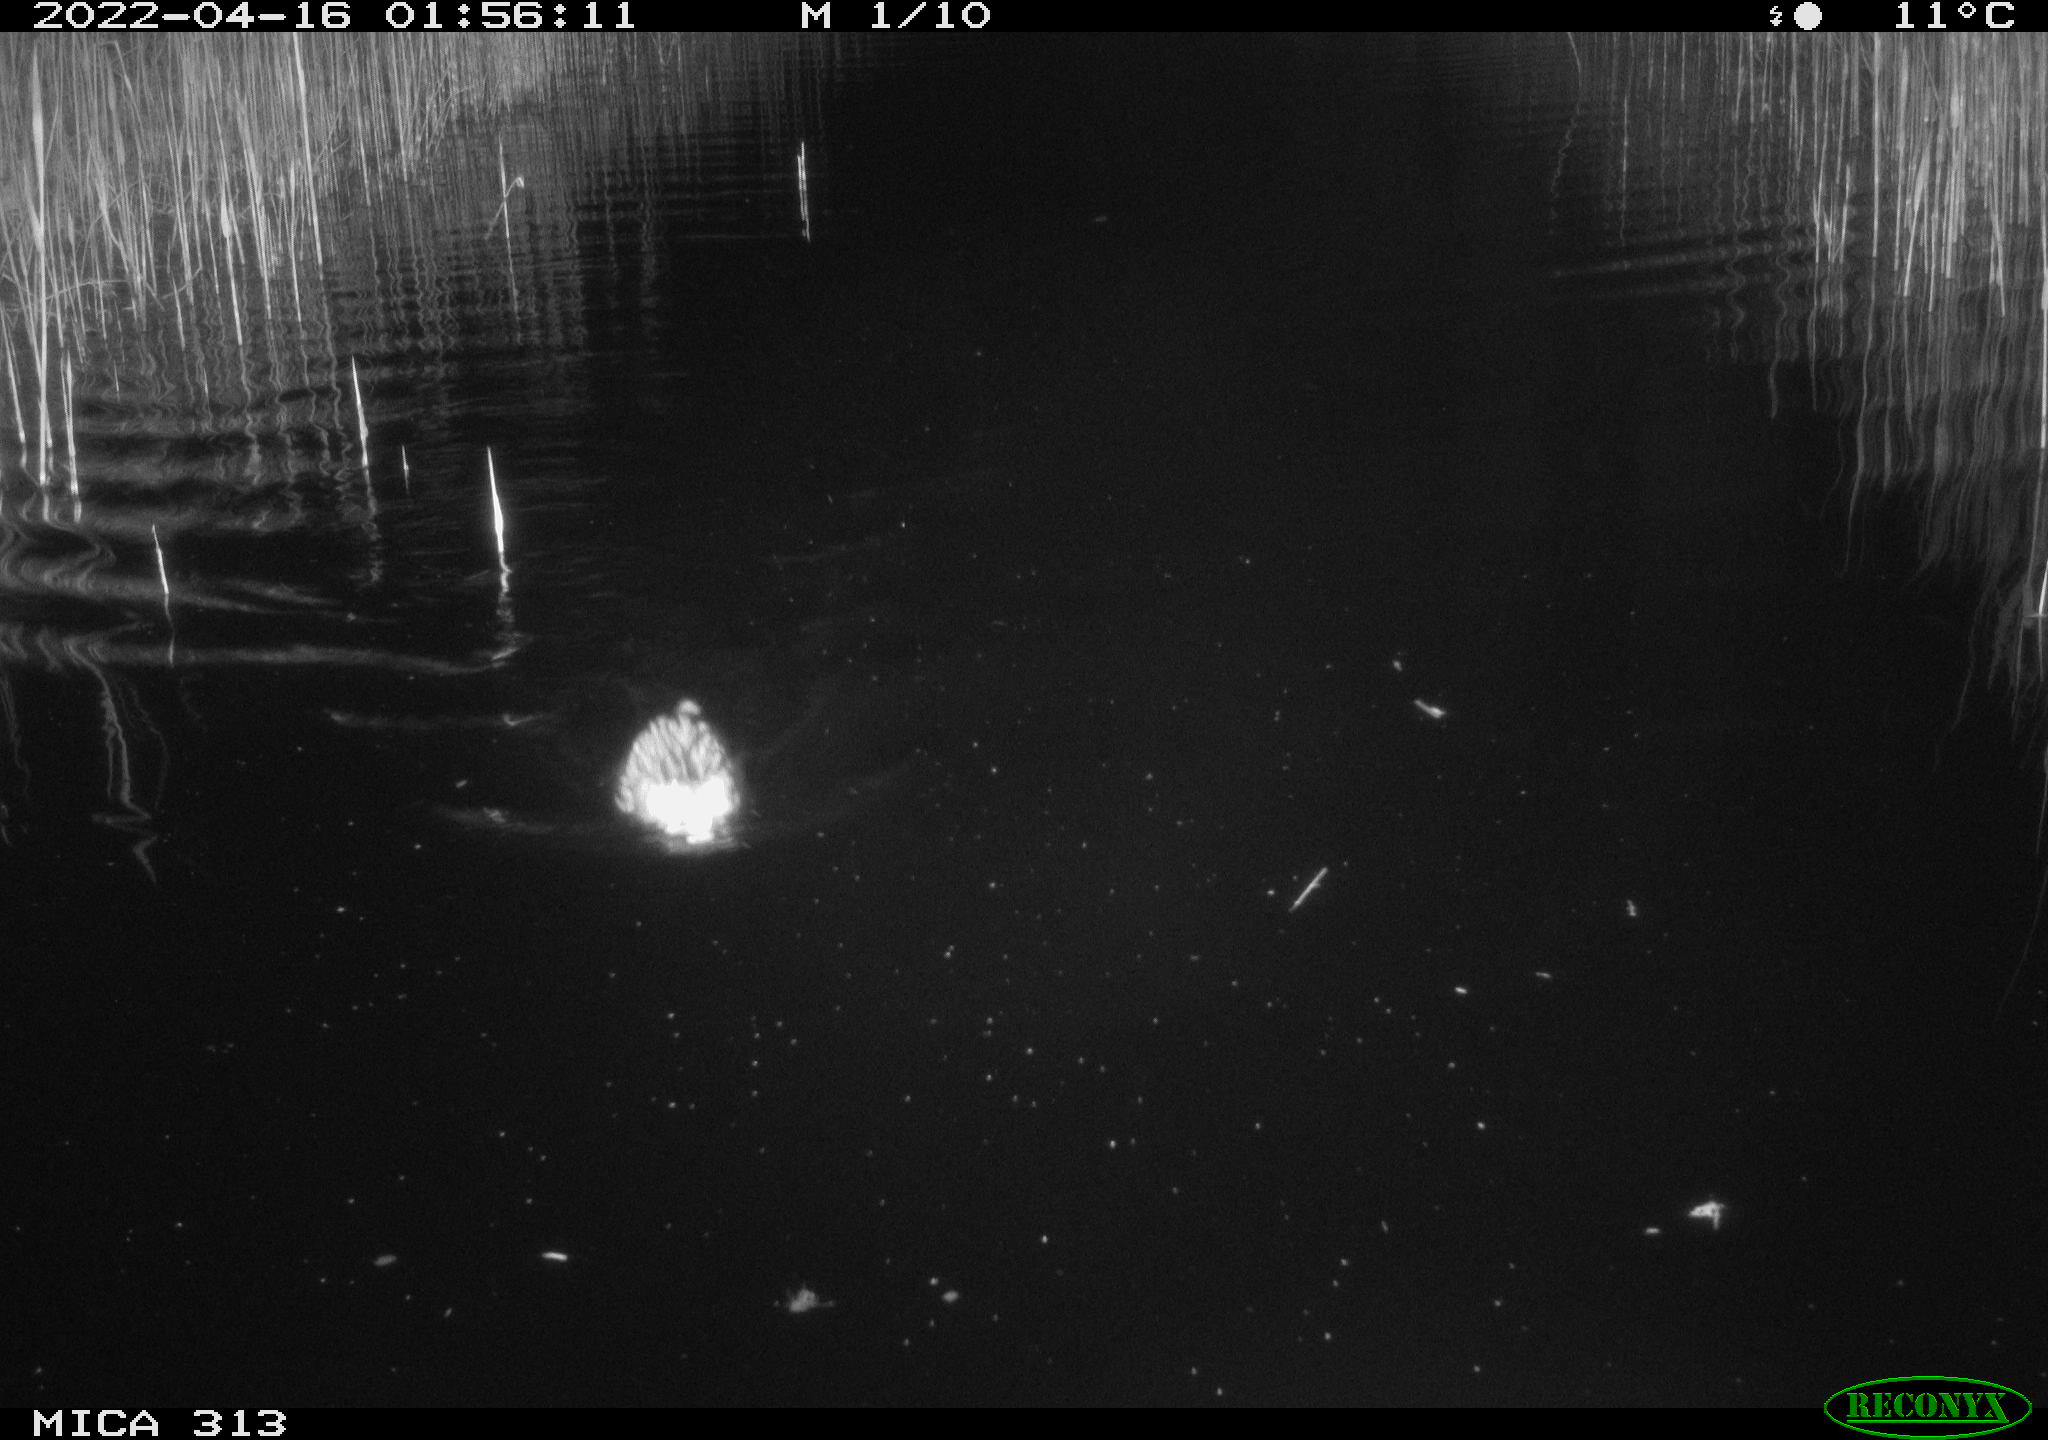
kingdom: Animalia
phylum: Chordata
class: Mammalia
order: Rodentia
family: Cricetidae
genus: Ondatra
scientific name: Ondatra zibethicus
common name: Muskrat
